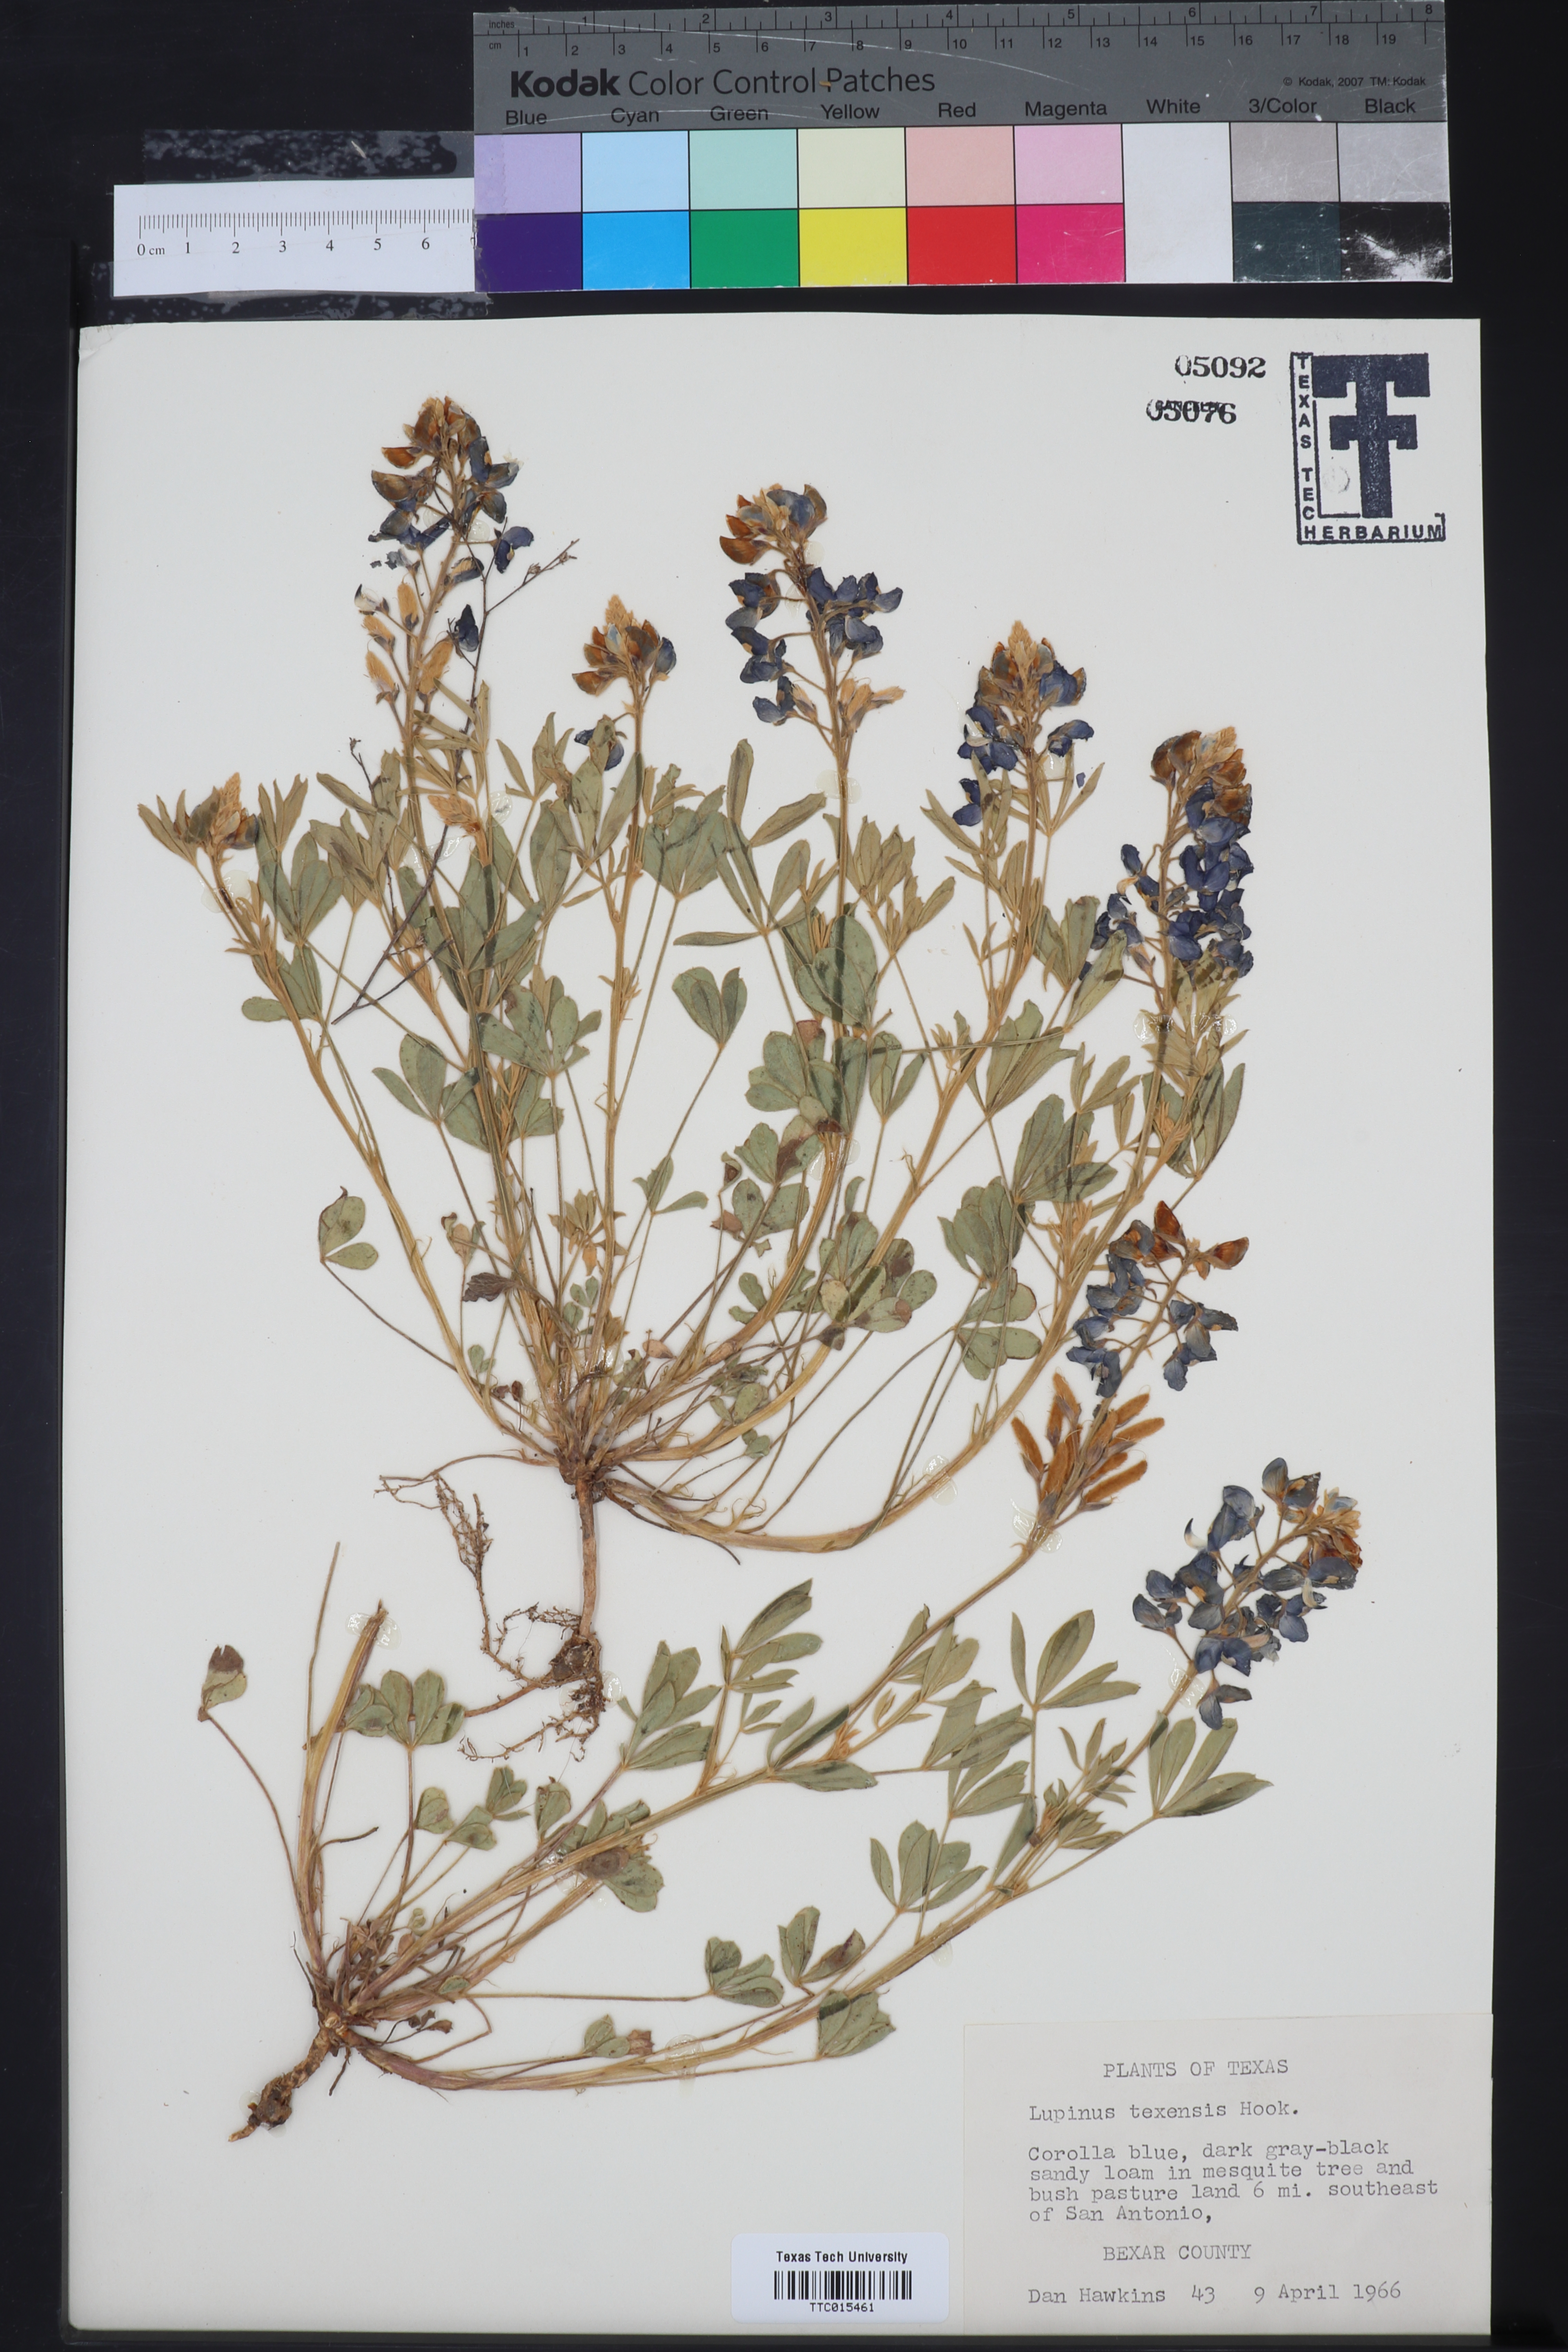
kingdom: Plantae
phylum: Tracheophyta
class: Magnoliopsida
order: Fabales
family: Fabaceae
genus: Lupinus
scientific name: Lupinus texensis
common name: Texas bluebonnet
